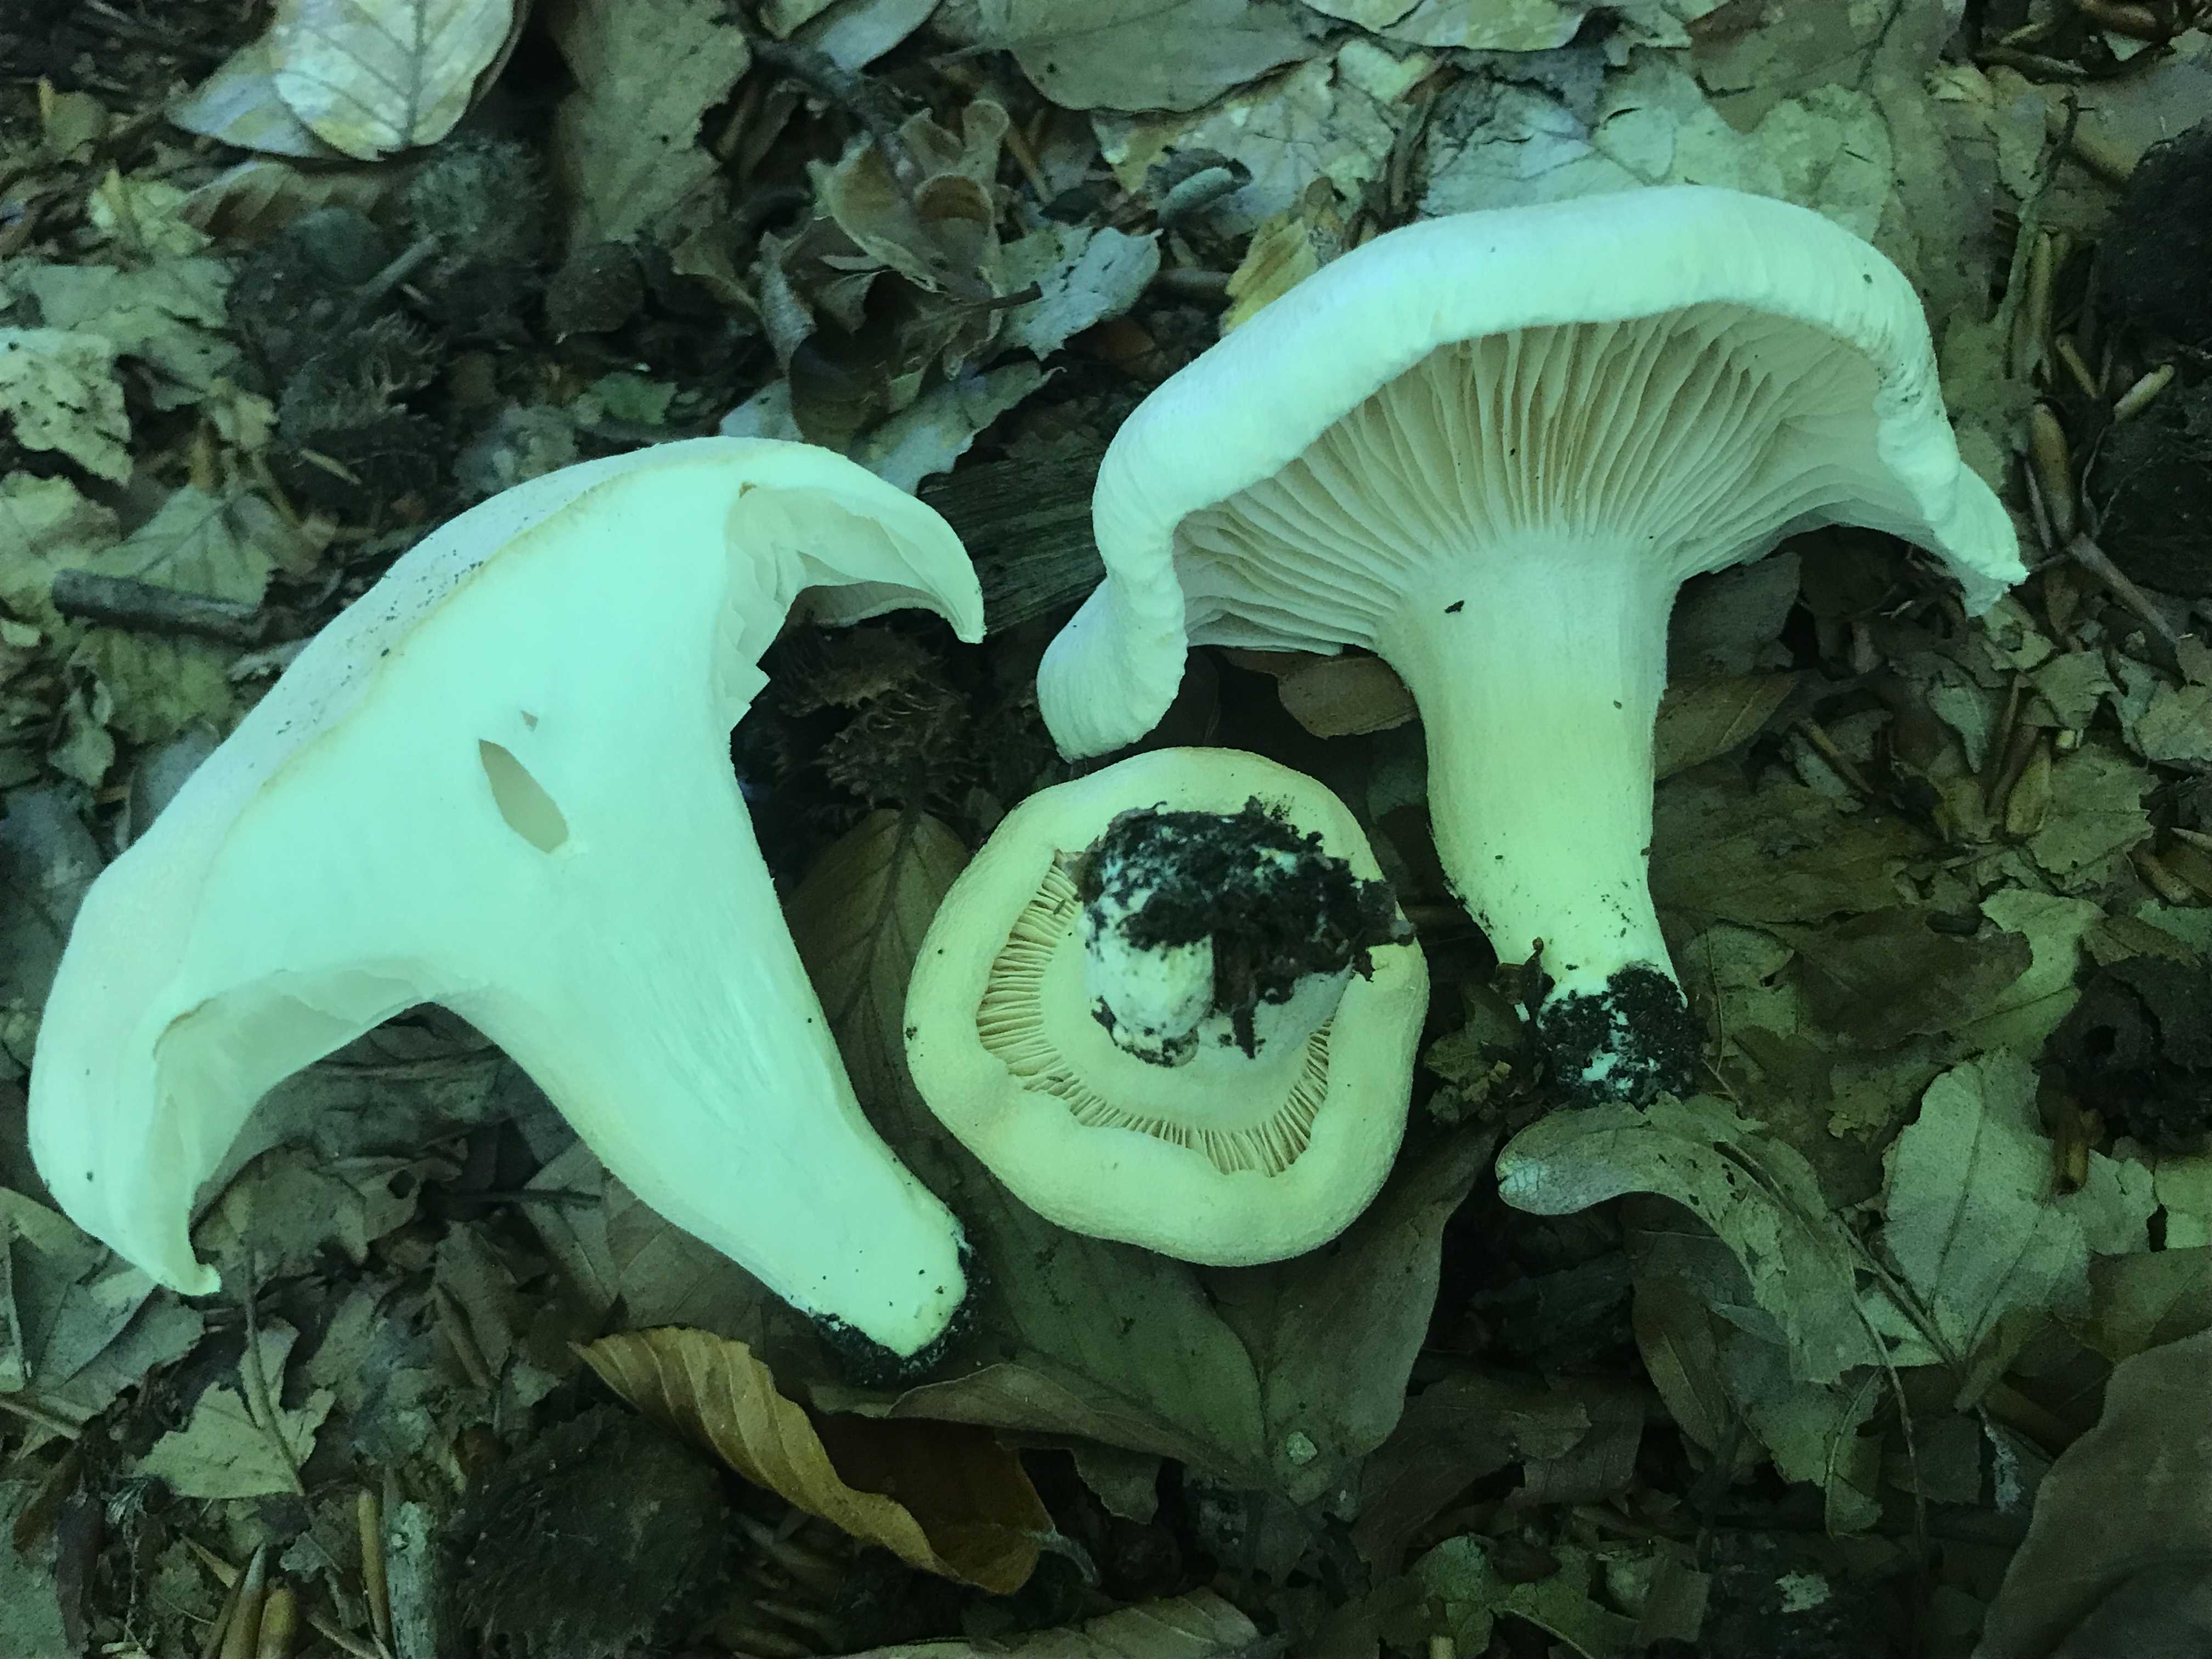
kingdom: Fungi
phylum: Basidiomycota
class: Agaricomycetes
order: Agaricales
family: Hygrophoraceae
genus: Hygrophorus
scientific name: Hygrophorus penarius
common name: spiselig sneglehat
